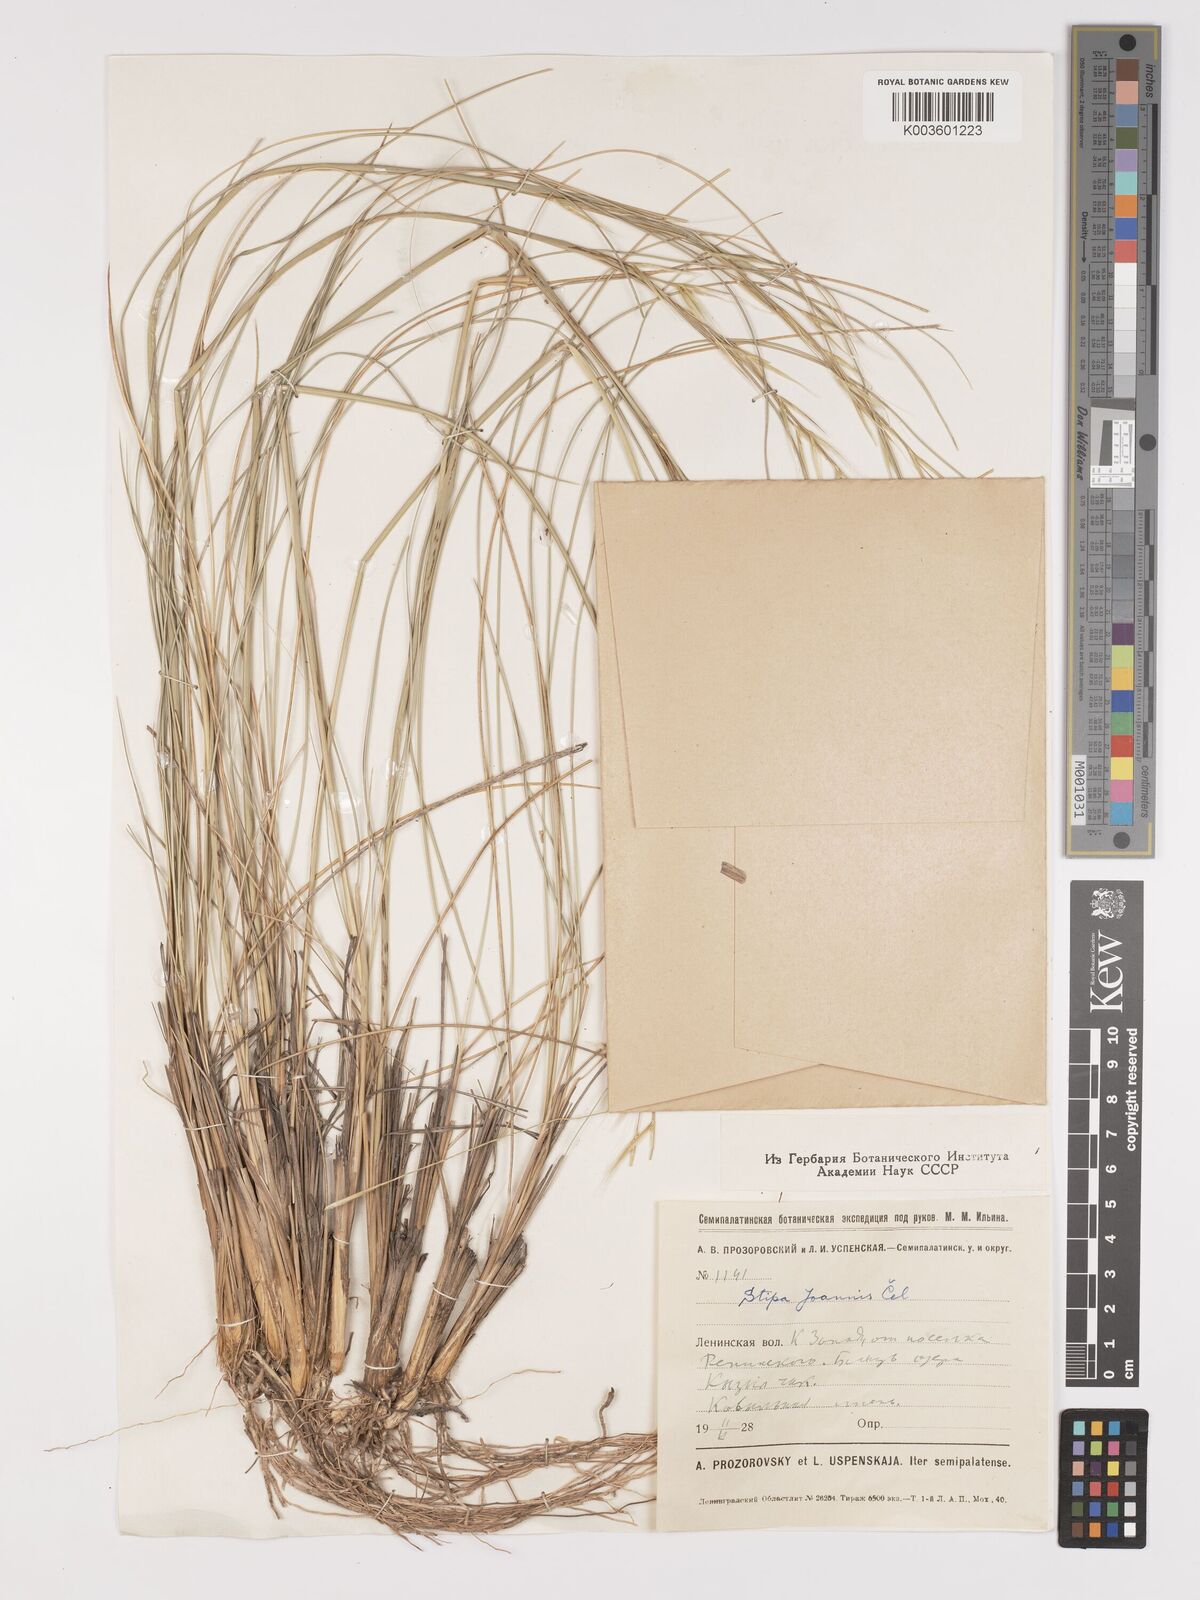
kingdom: Plantae
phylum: Tracheophyta
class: Liliopsida
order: Poales
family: Poaceae
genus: Stipa
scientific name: Stipa pennata
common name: European feather grass
